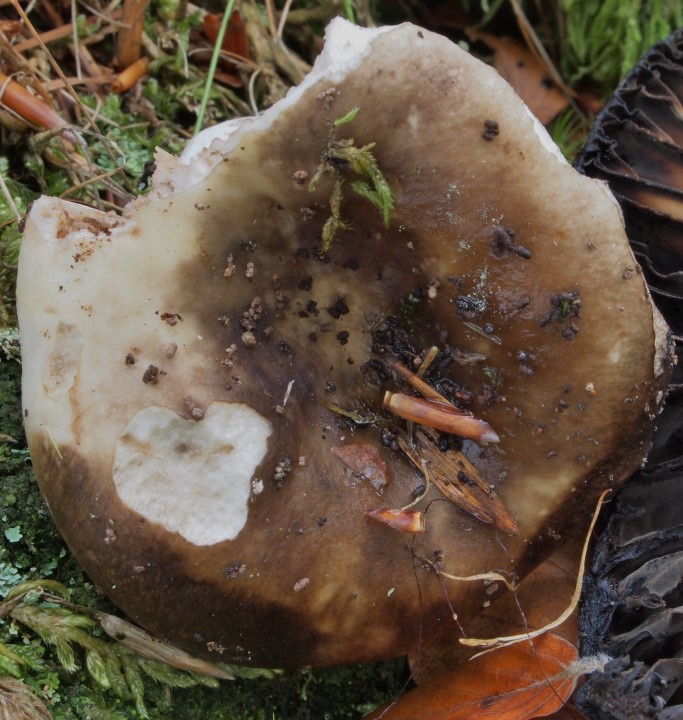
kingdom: Fungi
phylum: Basidiomycota
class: Agaricomycetes
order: Russulales
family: Russulaceae
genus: Russula
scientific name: Russula densifolia
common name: tætbladet skørhat
